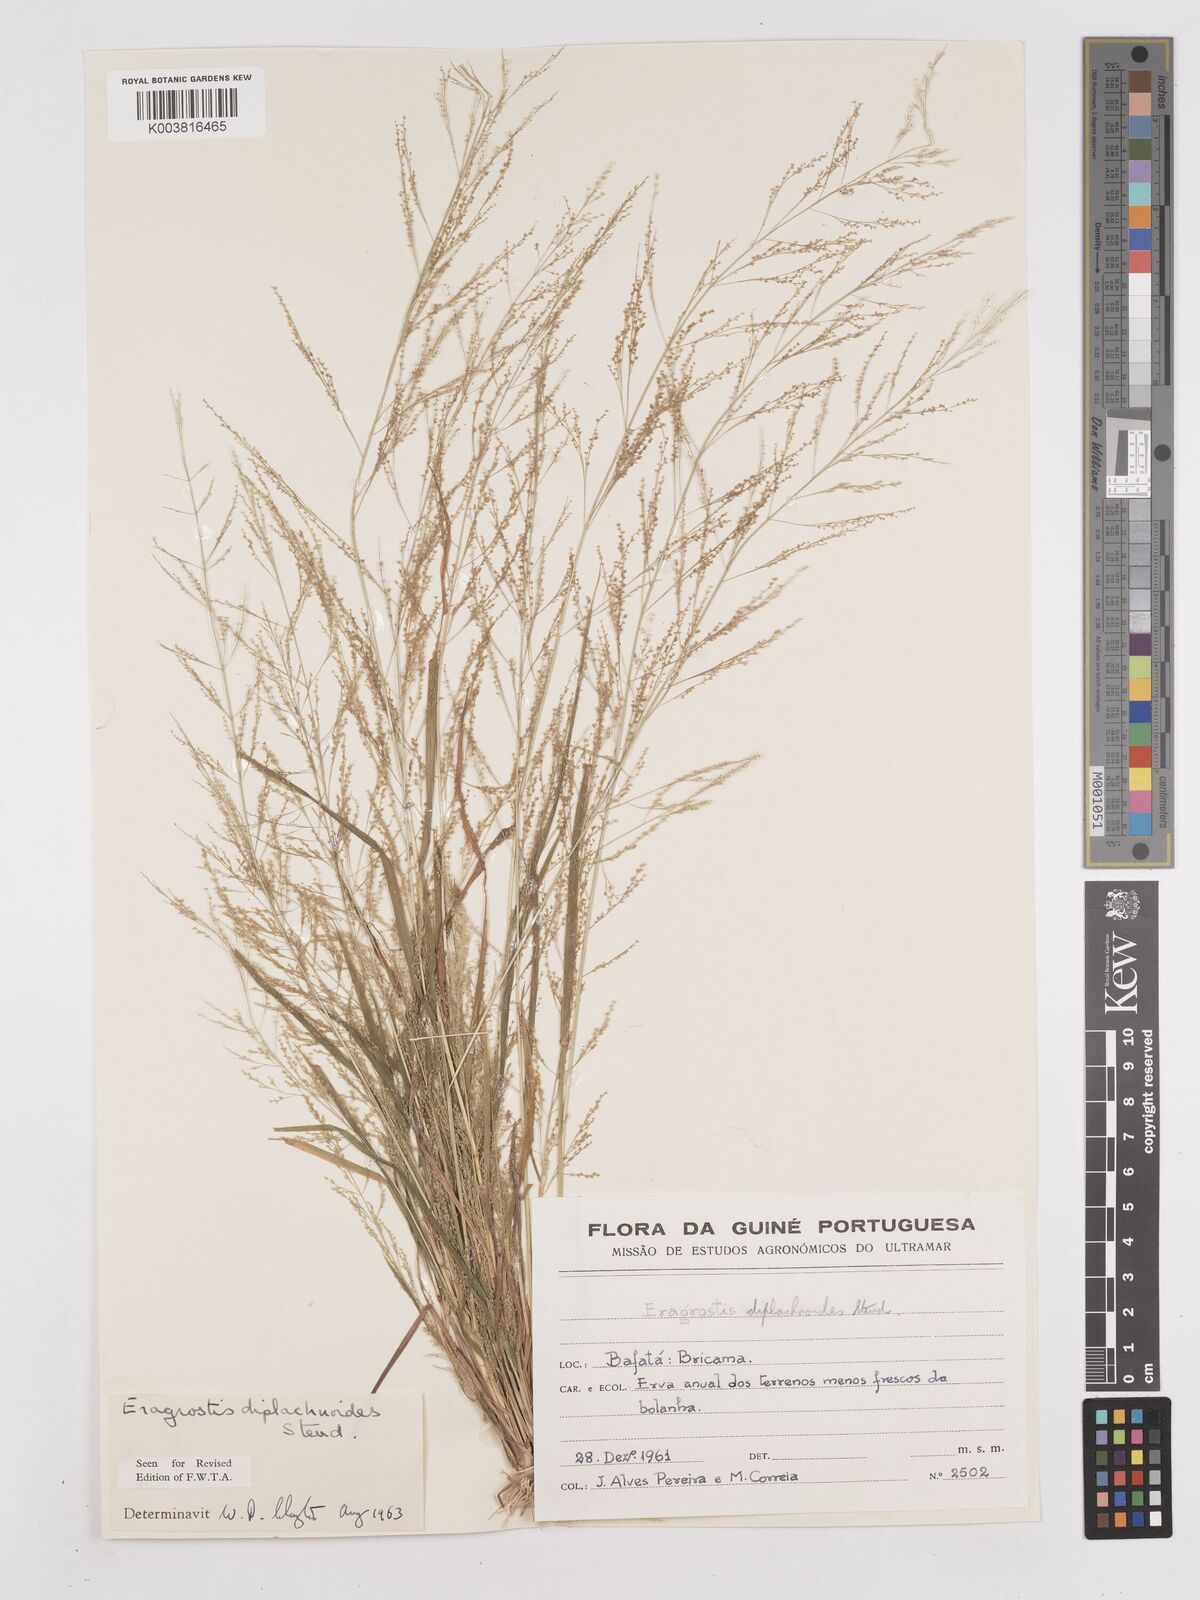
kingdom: Plantae
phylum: Tracheophyta
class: Liliopsida
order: Poales
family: Poaceae
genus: Eragrostis
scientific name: Eragrostis japonica
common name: Pond lovegrass
